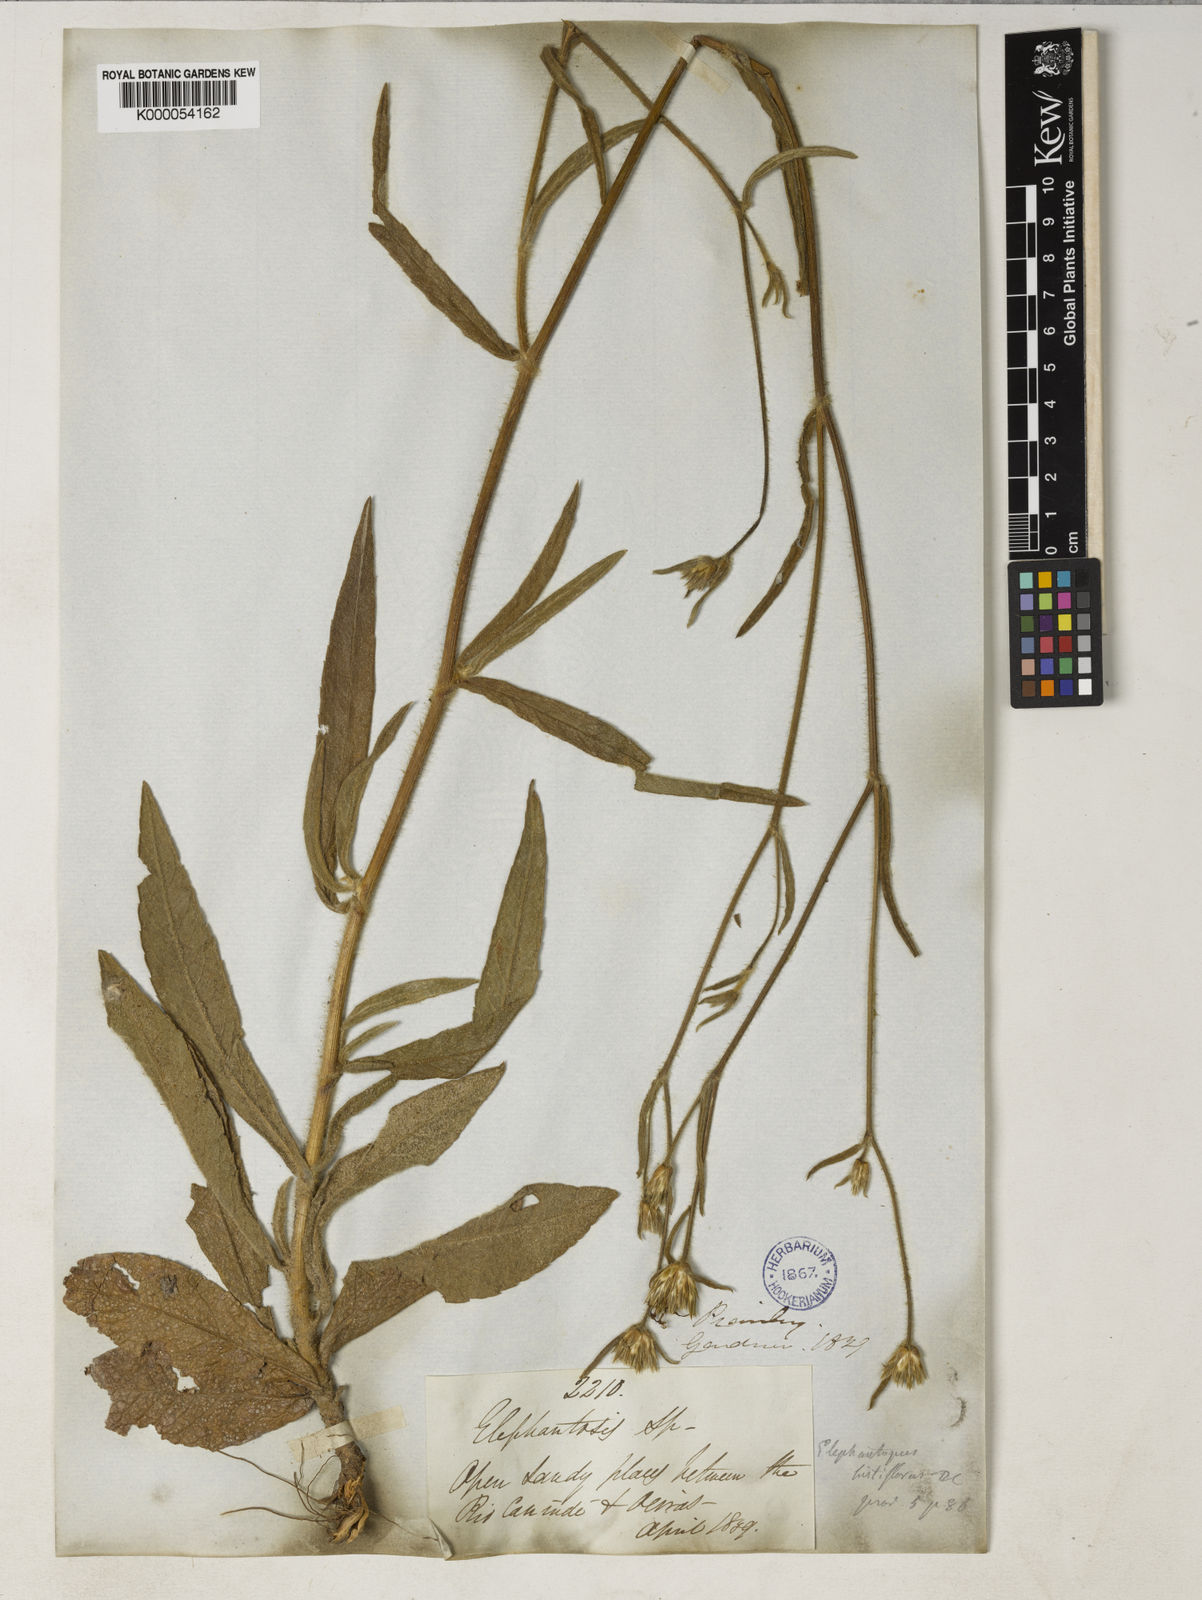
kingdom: Plantae
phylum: Tracheophyta
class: Magnoliopsida
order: Asterales
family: Asteraceae
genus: Elephantopus
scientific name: Elephantopus hirtiflorus
